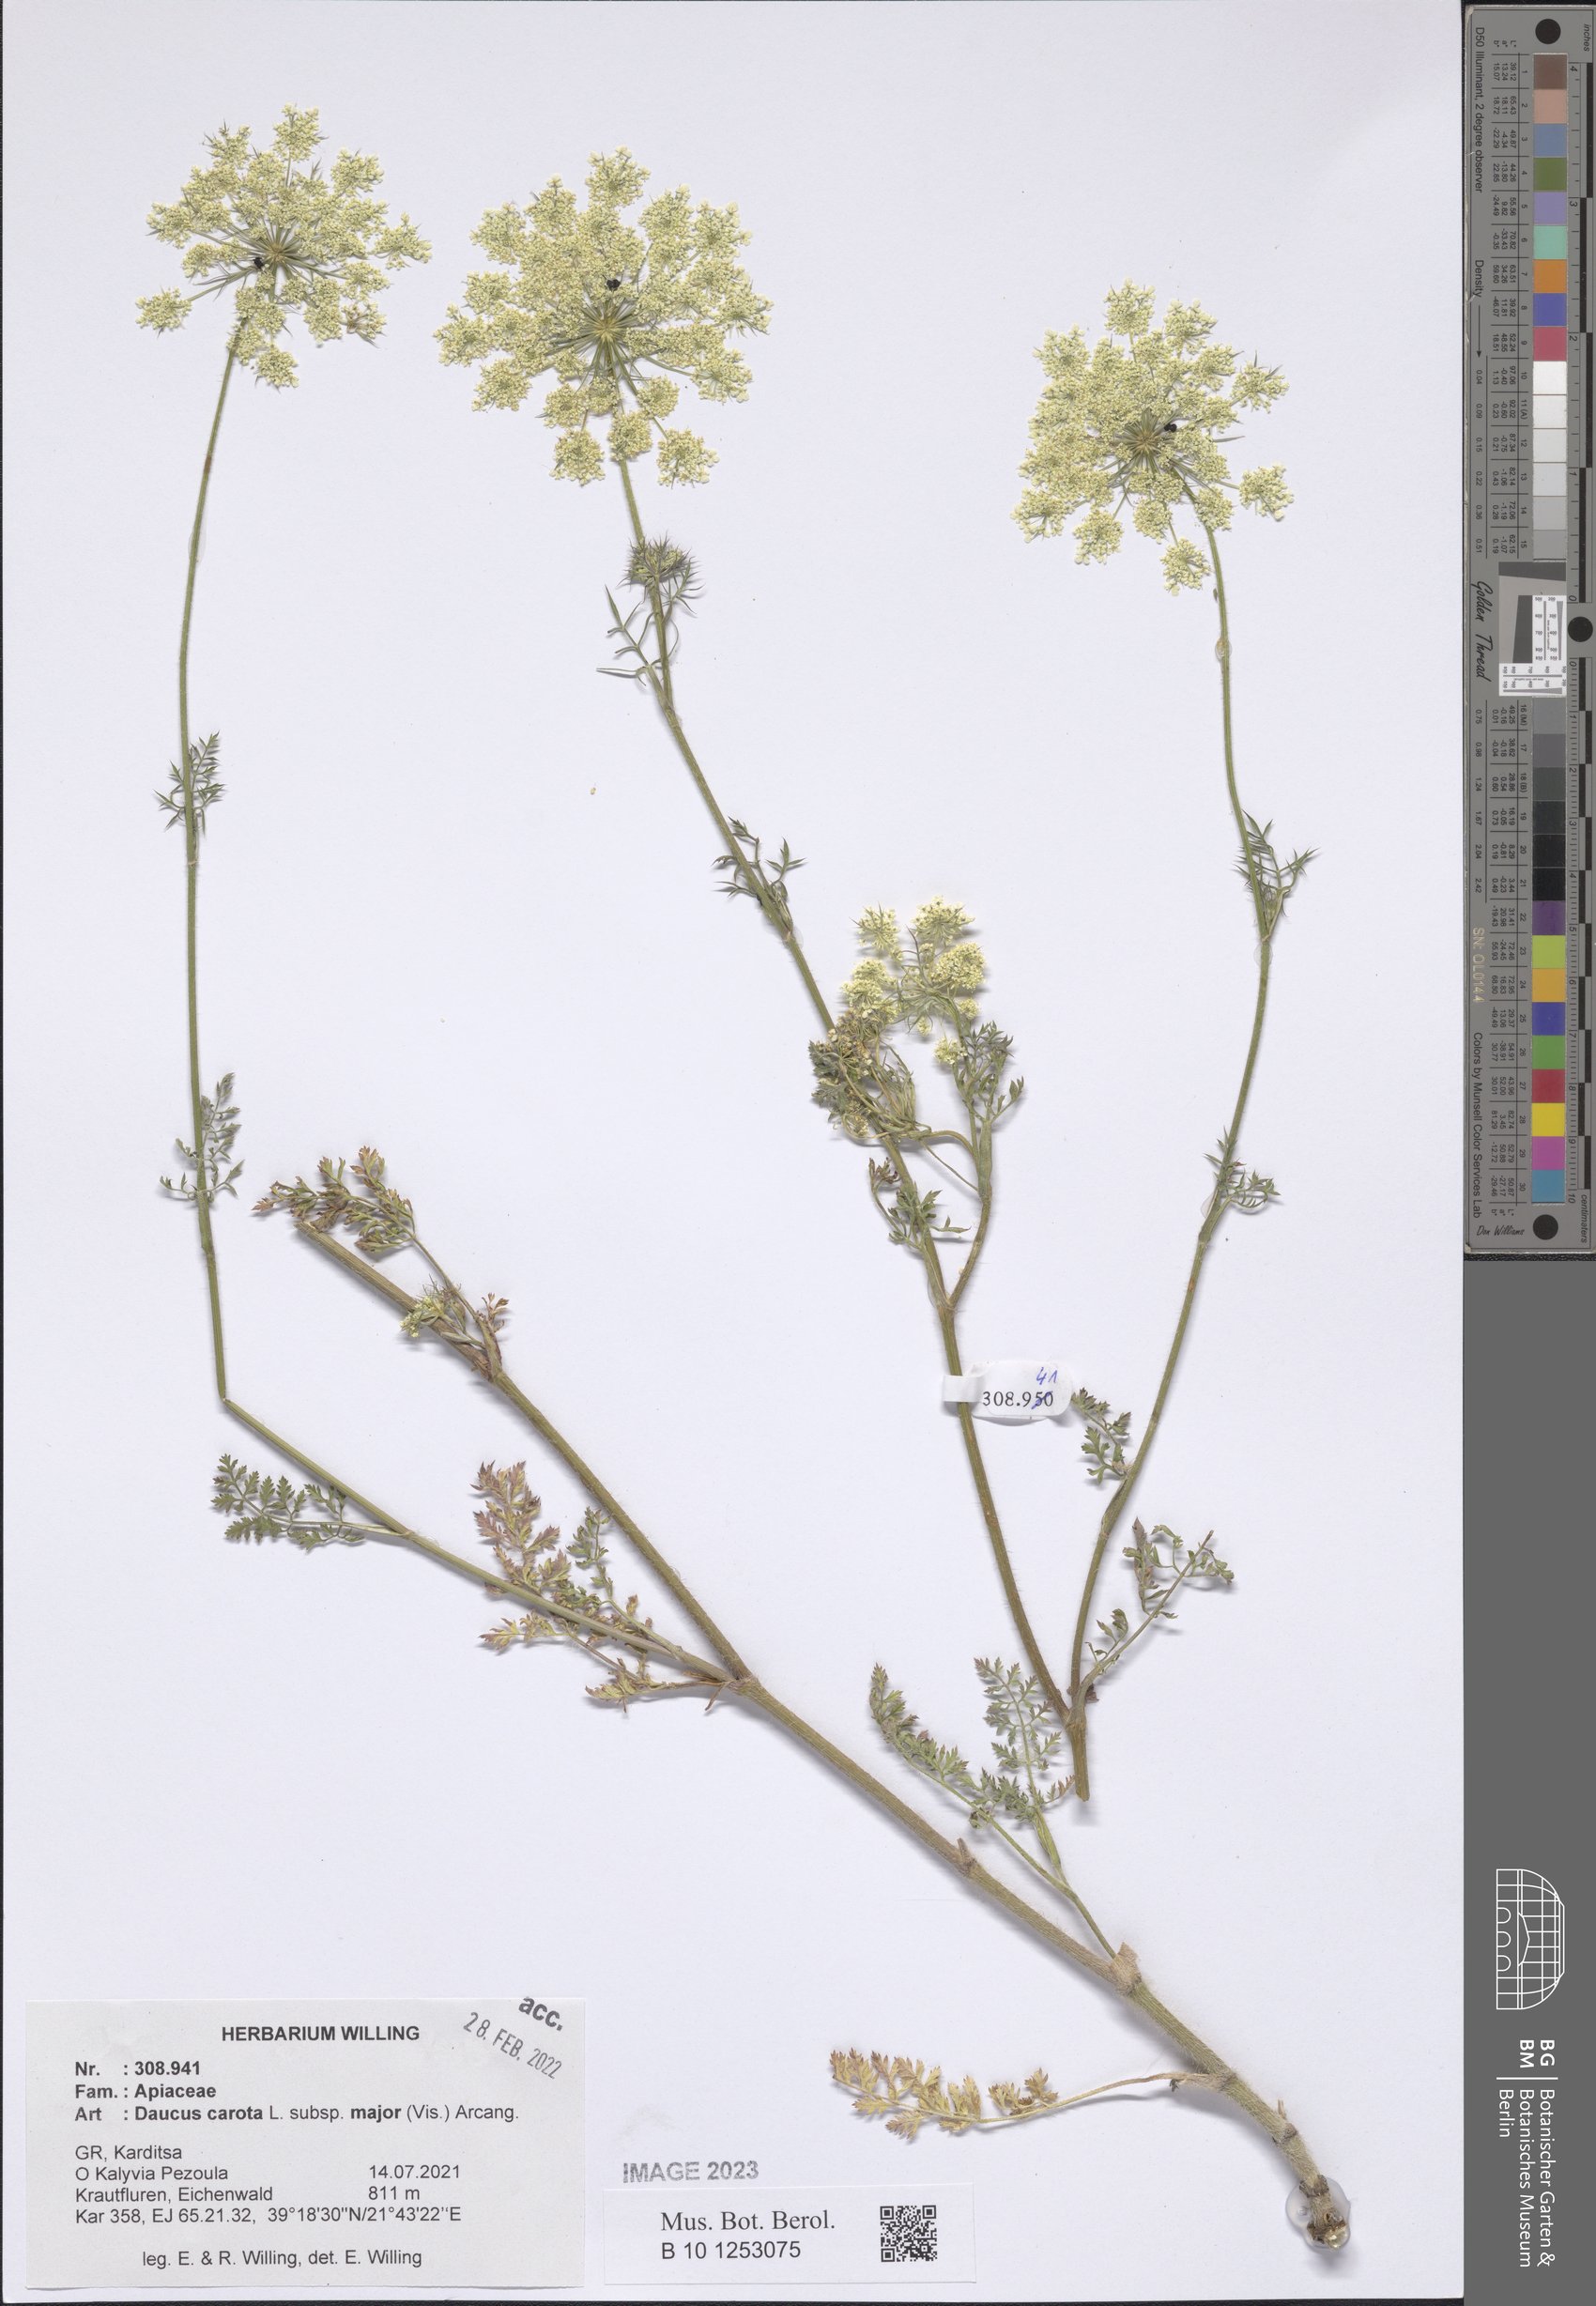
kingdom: Plantae
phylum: Tracheophyta
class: Magnoliopsida
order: Apiales
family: Apiaceae
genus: Daucus
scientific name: Daucus carota
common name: Wild carrot
